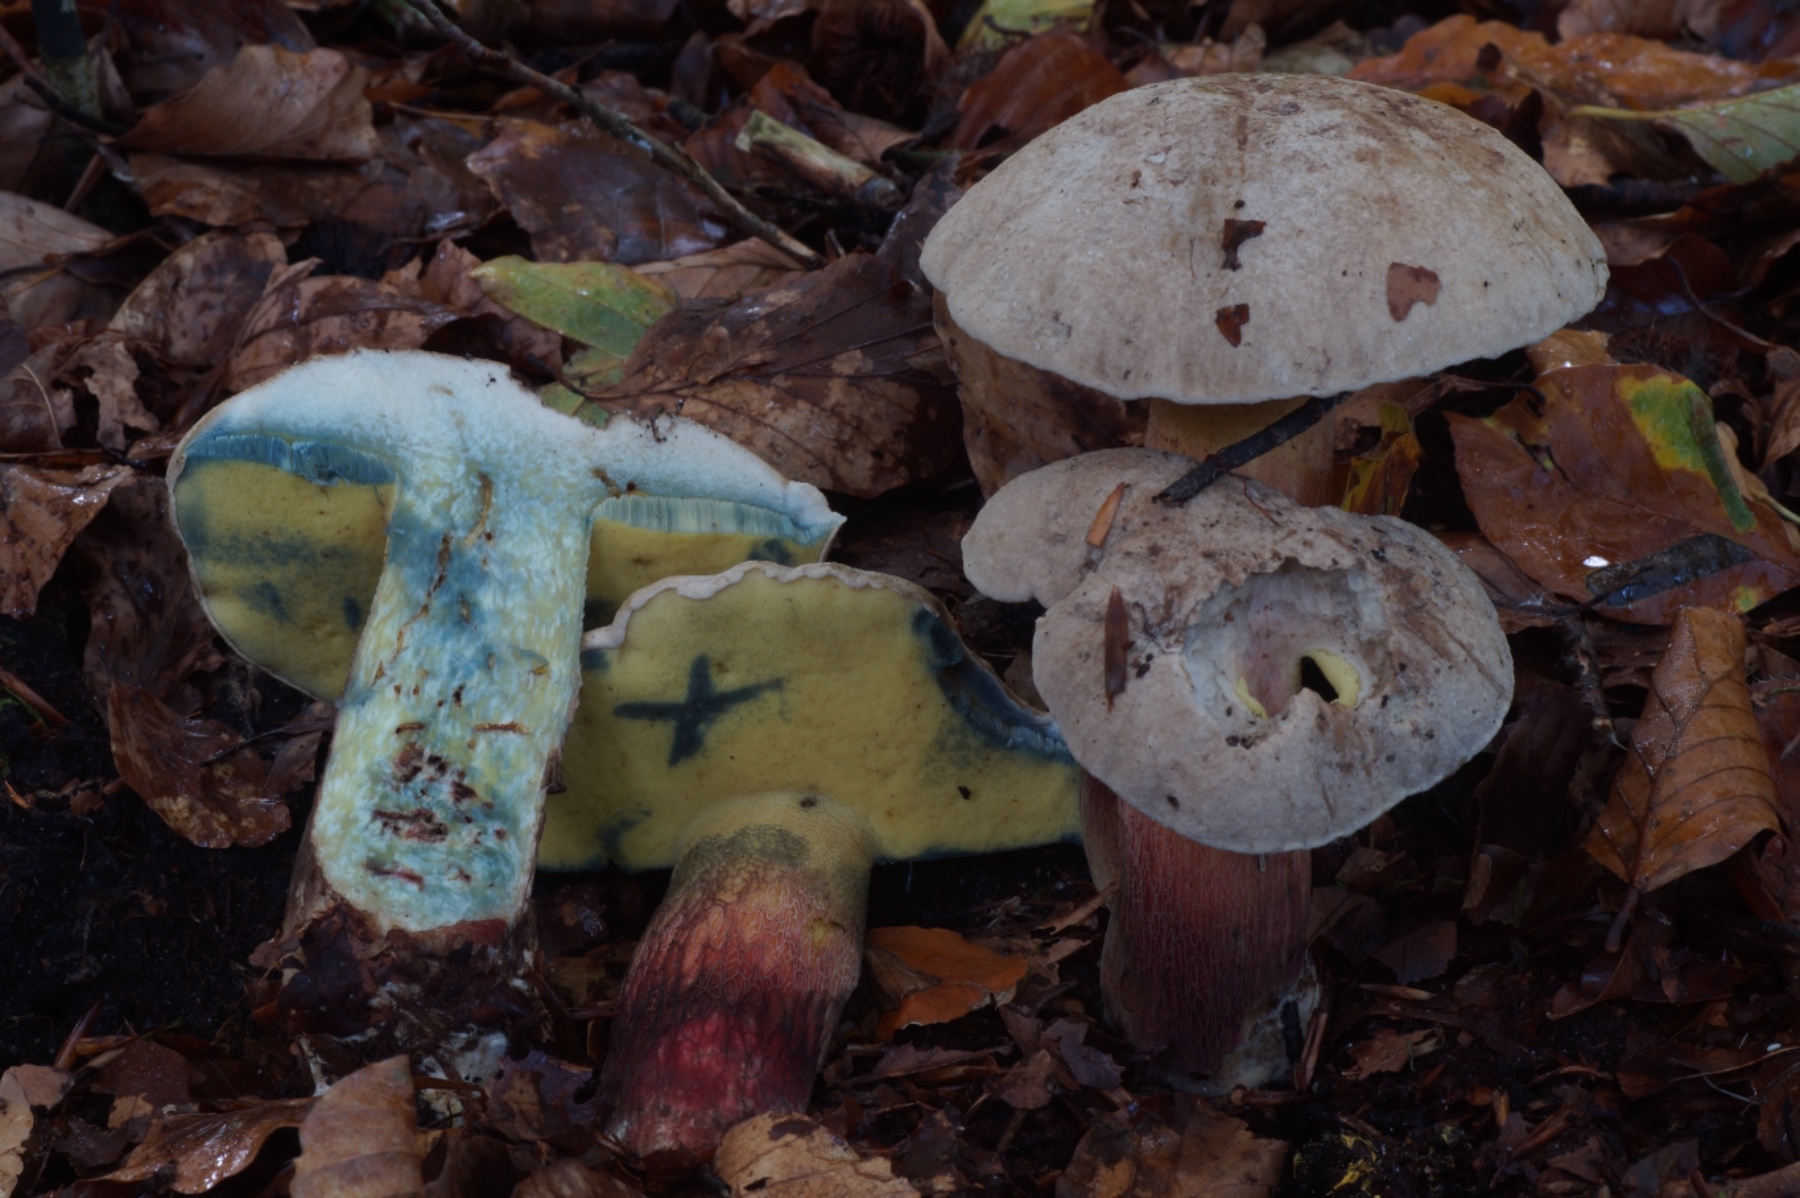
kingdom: Fungi
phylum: Basidiomycota
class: Agaricomycetes
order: Boletales
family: Boletaceae
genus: Caloboletus
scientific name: Caloboletus calopus
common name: skønfodet rørhat
